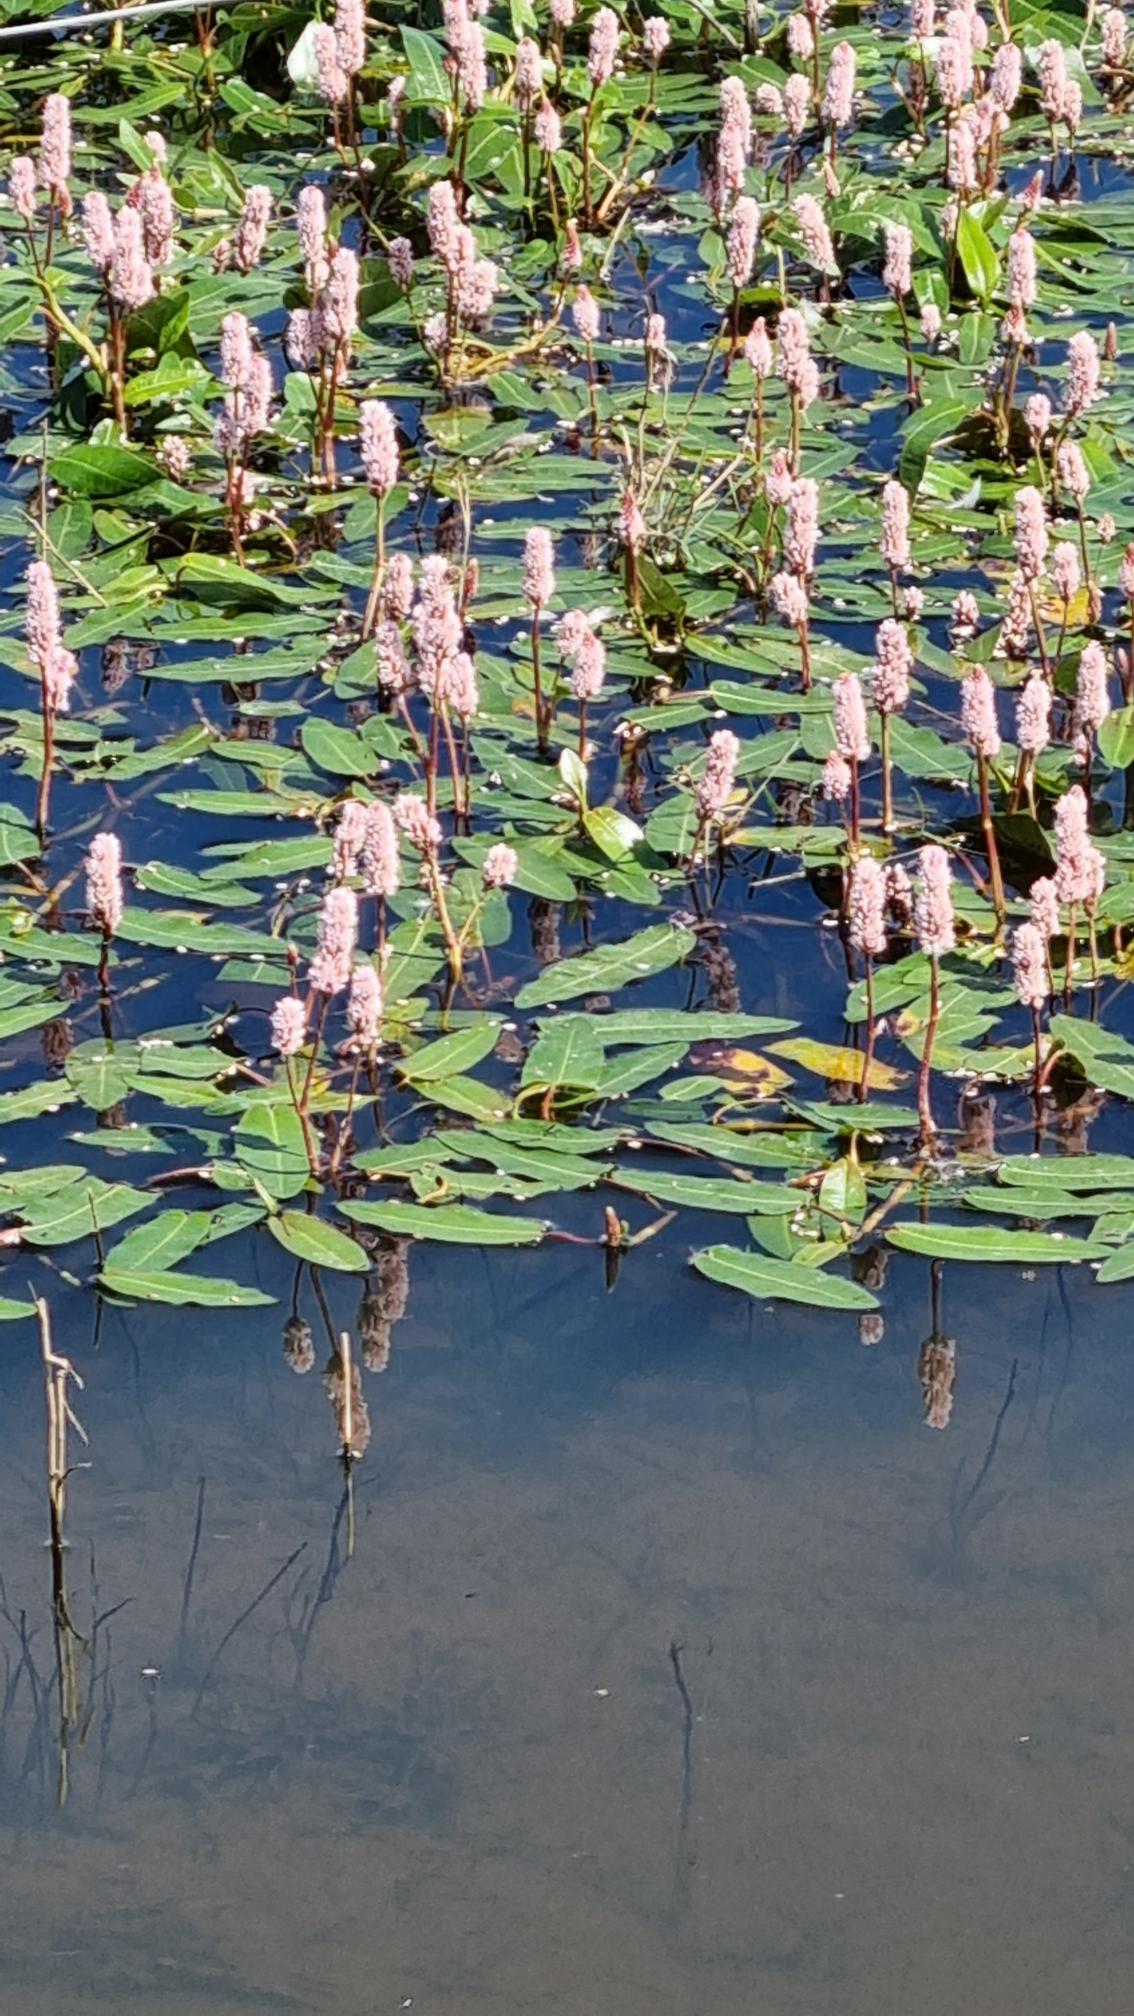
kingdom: Plantae
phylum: Tracheophyta
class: Magnoliopsida
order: Caryophyllales
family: Polygonaceae
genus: Persicaria
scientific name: Persicaria amphibia
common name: Vand-pileurt
